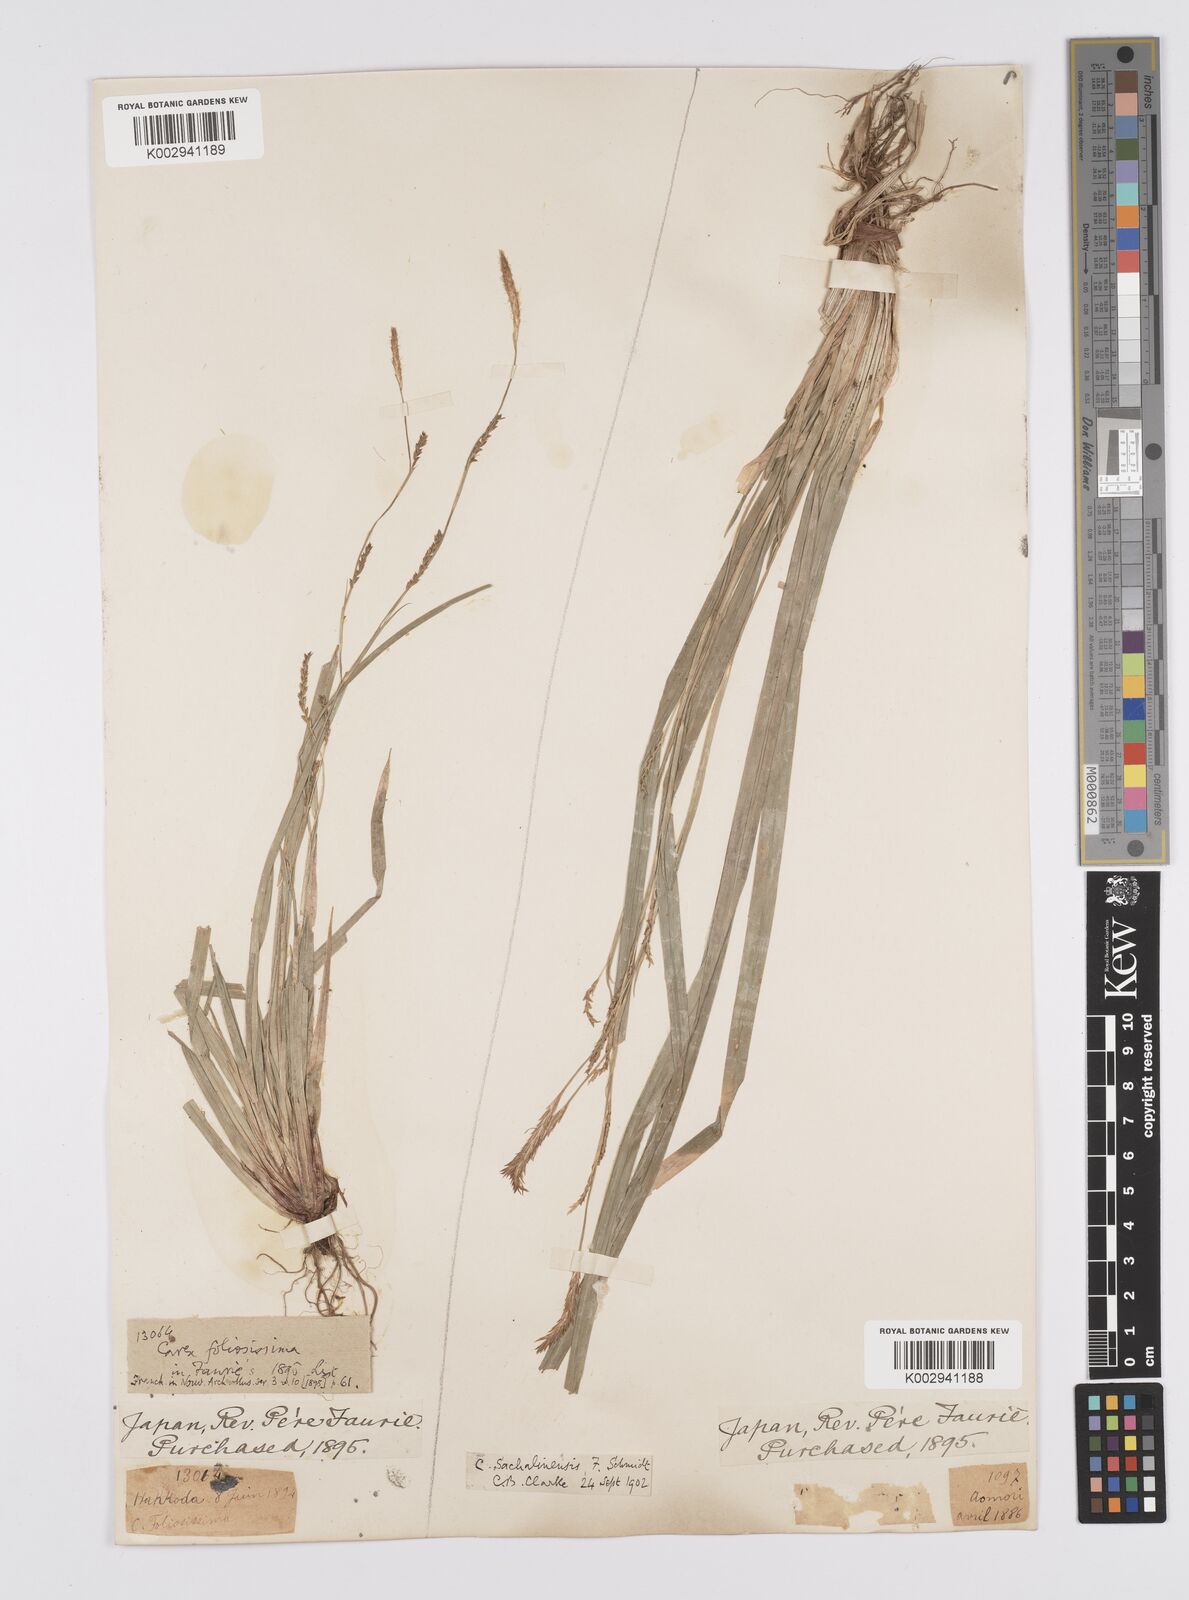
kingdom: Plantae
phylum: Tracheophyta
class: Liliopsida
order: Poales
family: Cyperaceae
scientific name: Cyperaceae
